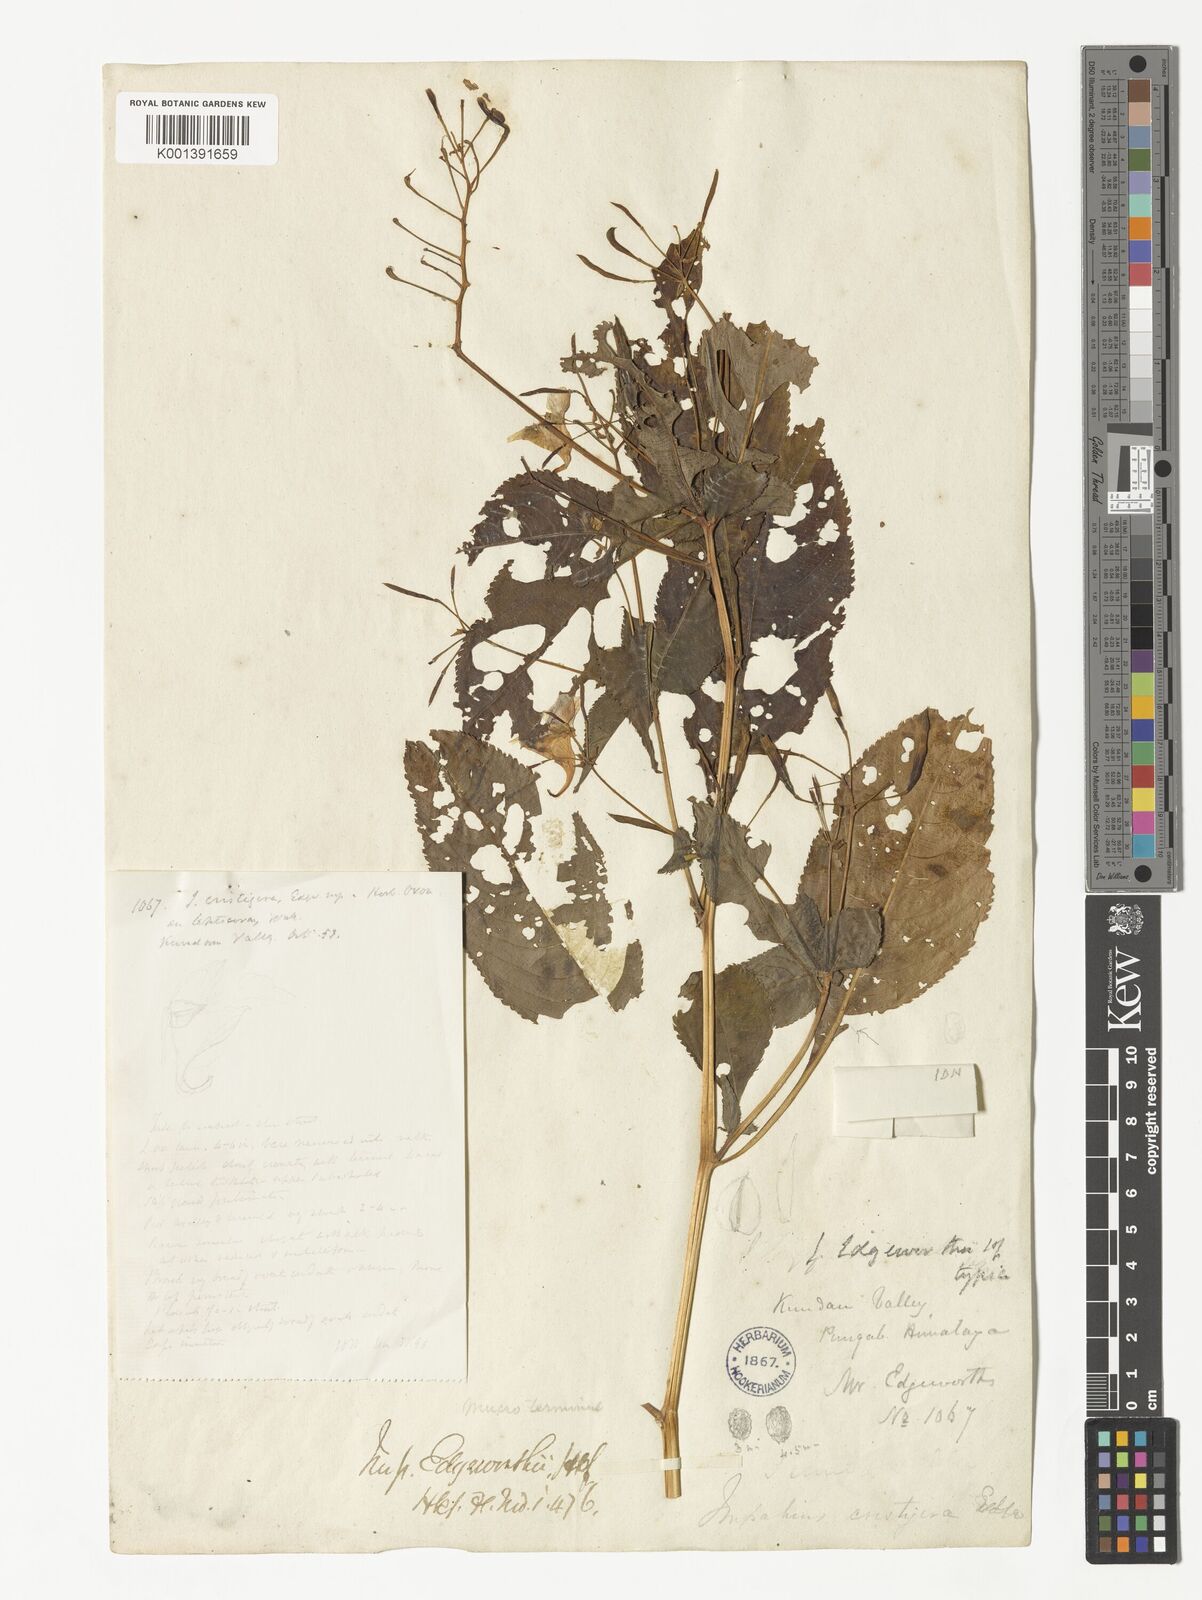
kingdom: Plantae
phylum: Tracheophyta
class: Magnoliopsida
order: Ericales
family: Balsaminaceae
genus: Impatiens
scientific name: Impatiens edgeworthii
